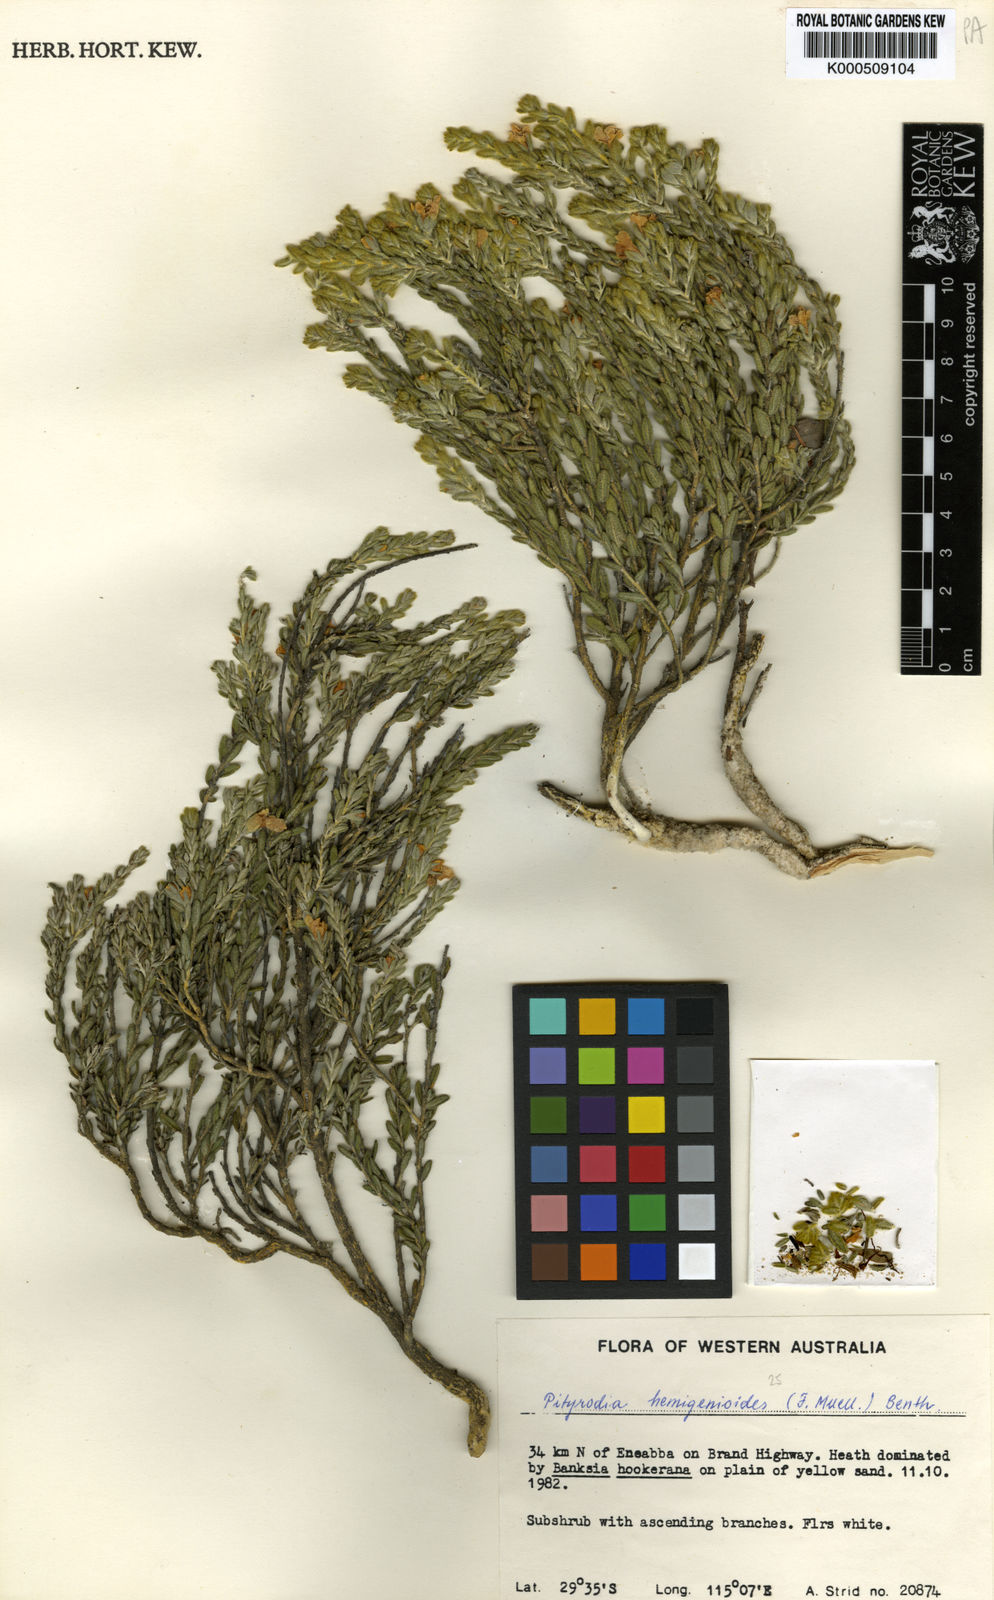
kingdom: Plantae
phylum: Tracheophyta
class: Magnoliopsida
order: Lamiales
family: Lamiaceae
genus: Pityrodia
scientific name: Pityrodia hemigenioides
